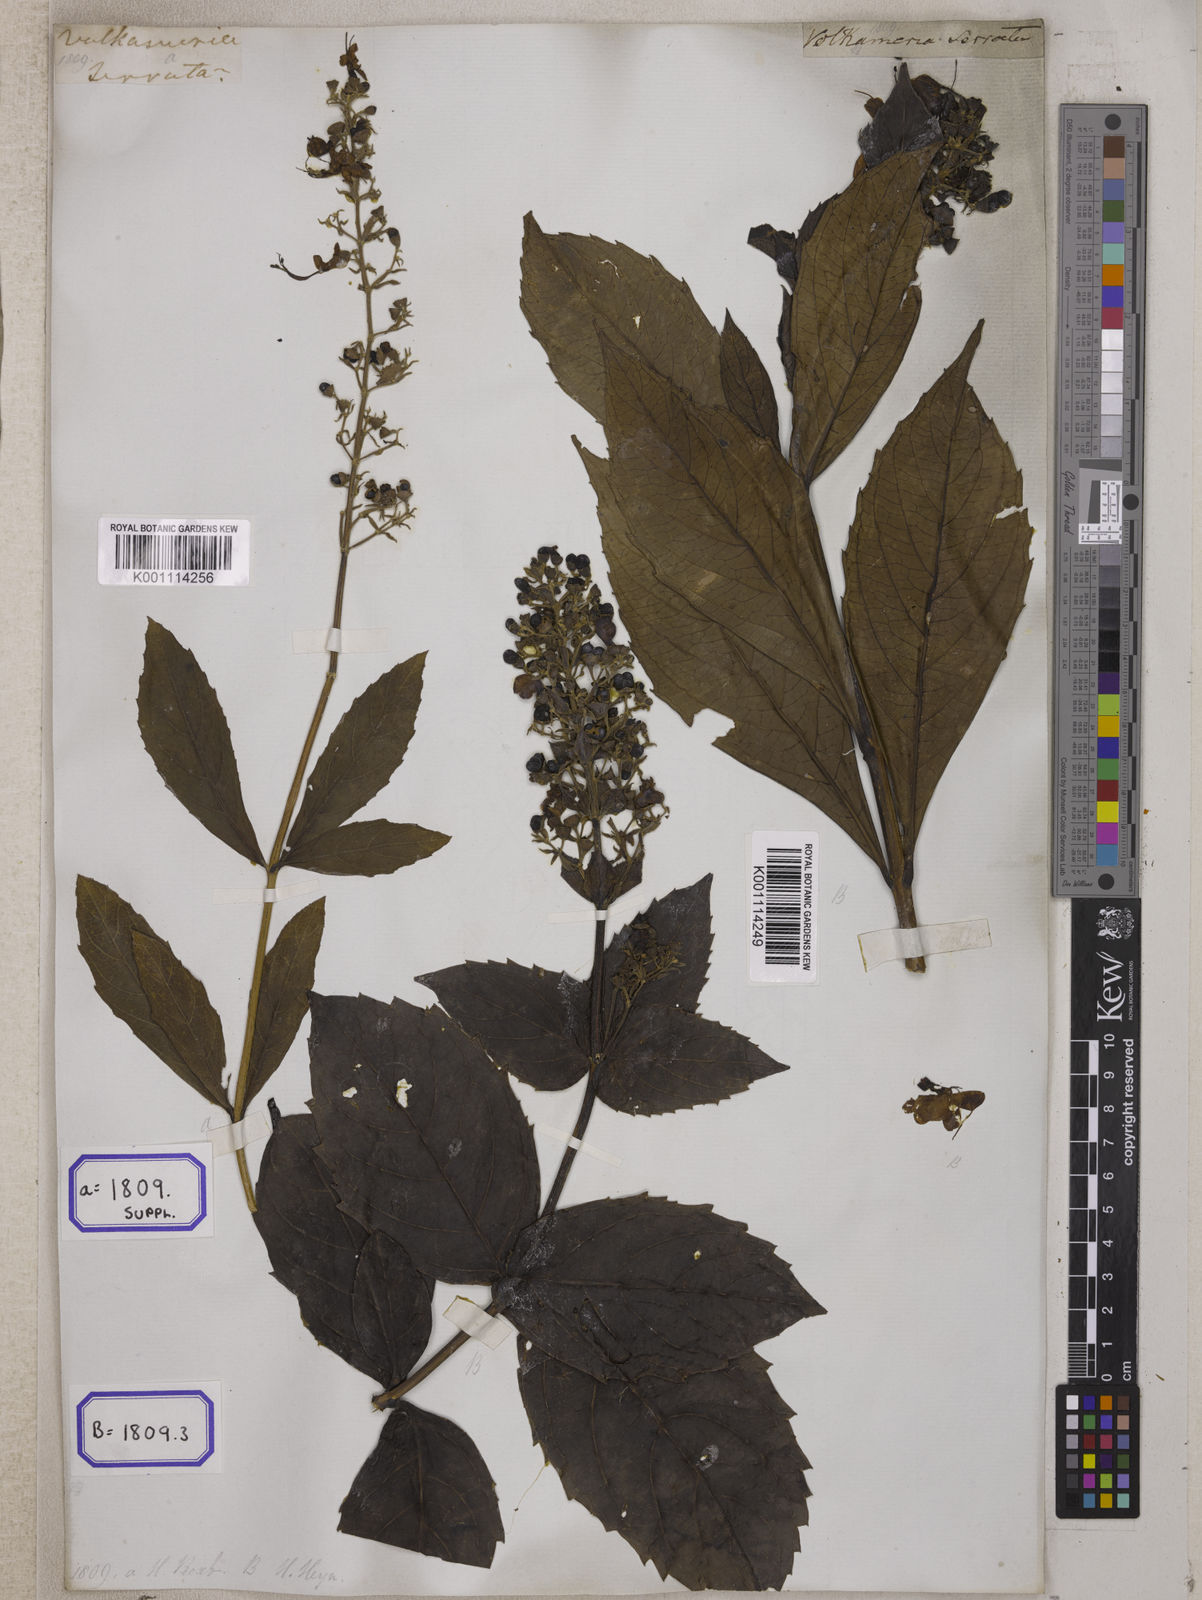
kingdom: Plantae
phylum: Tracheophyta
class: Magnoliopsida
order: Lamiales
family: Lamiaceae
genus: Clerodendrum
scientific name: Clerodendrum
